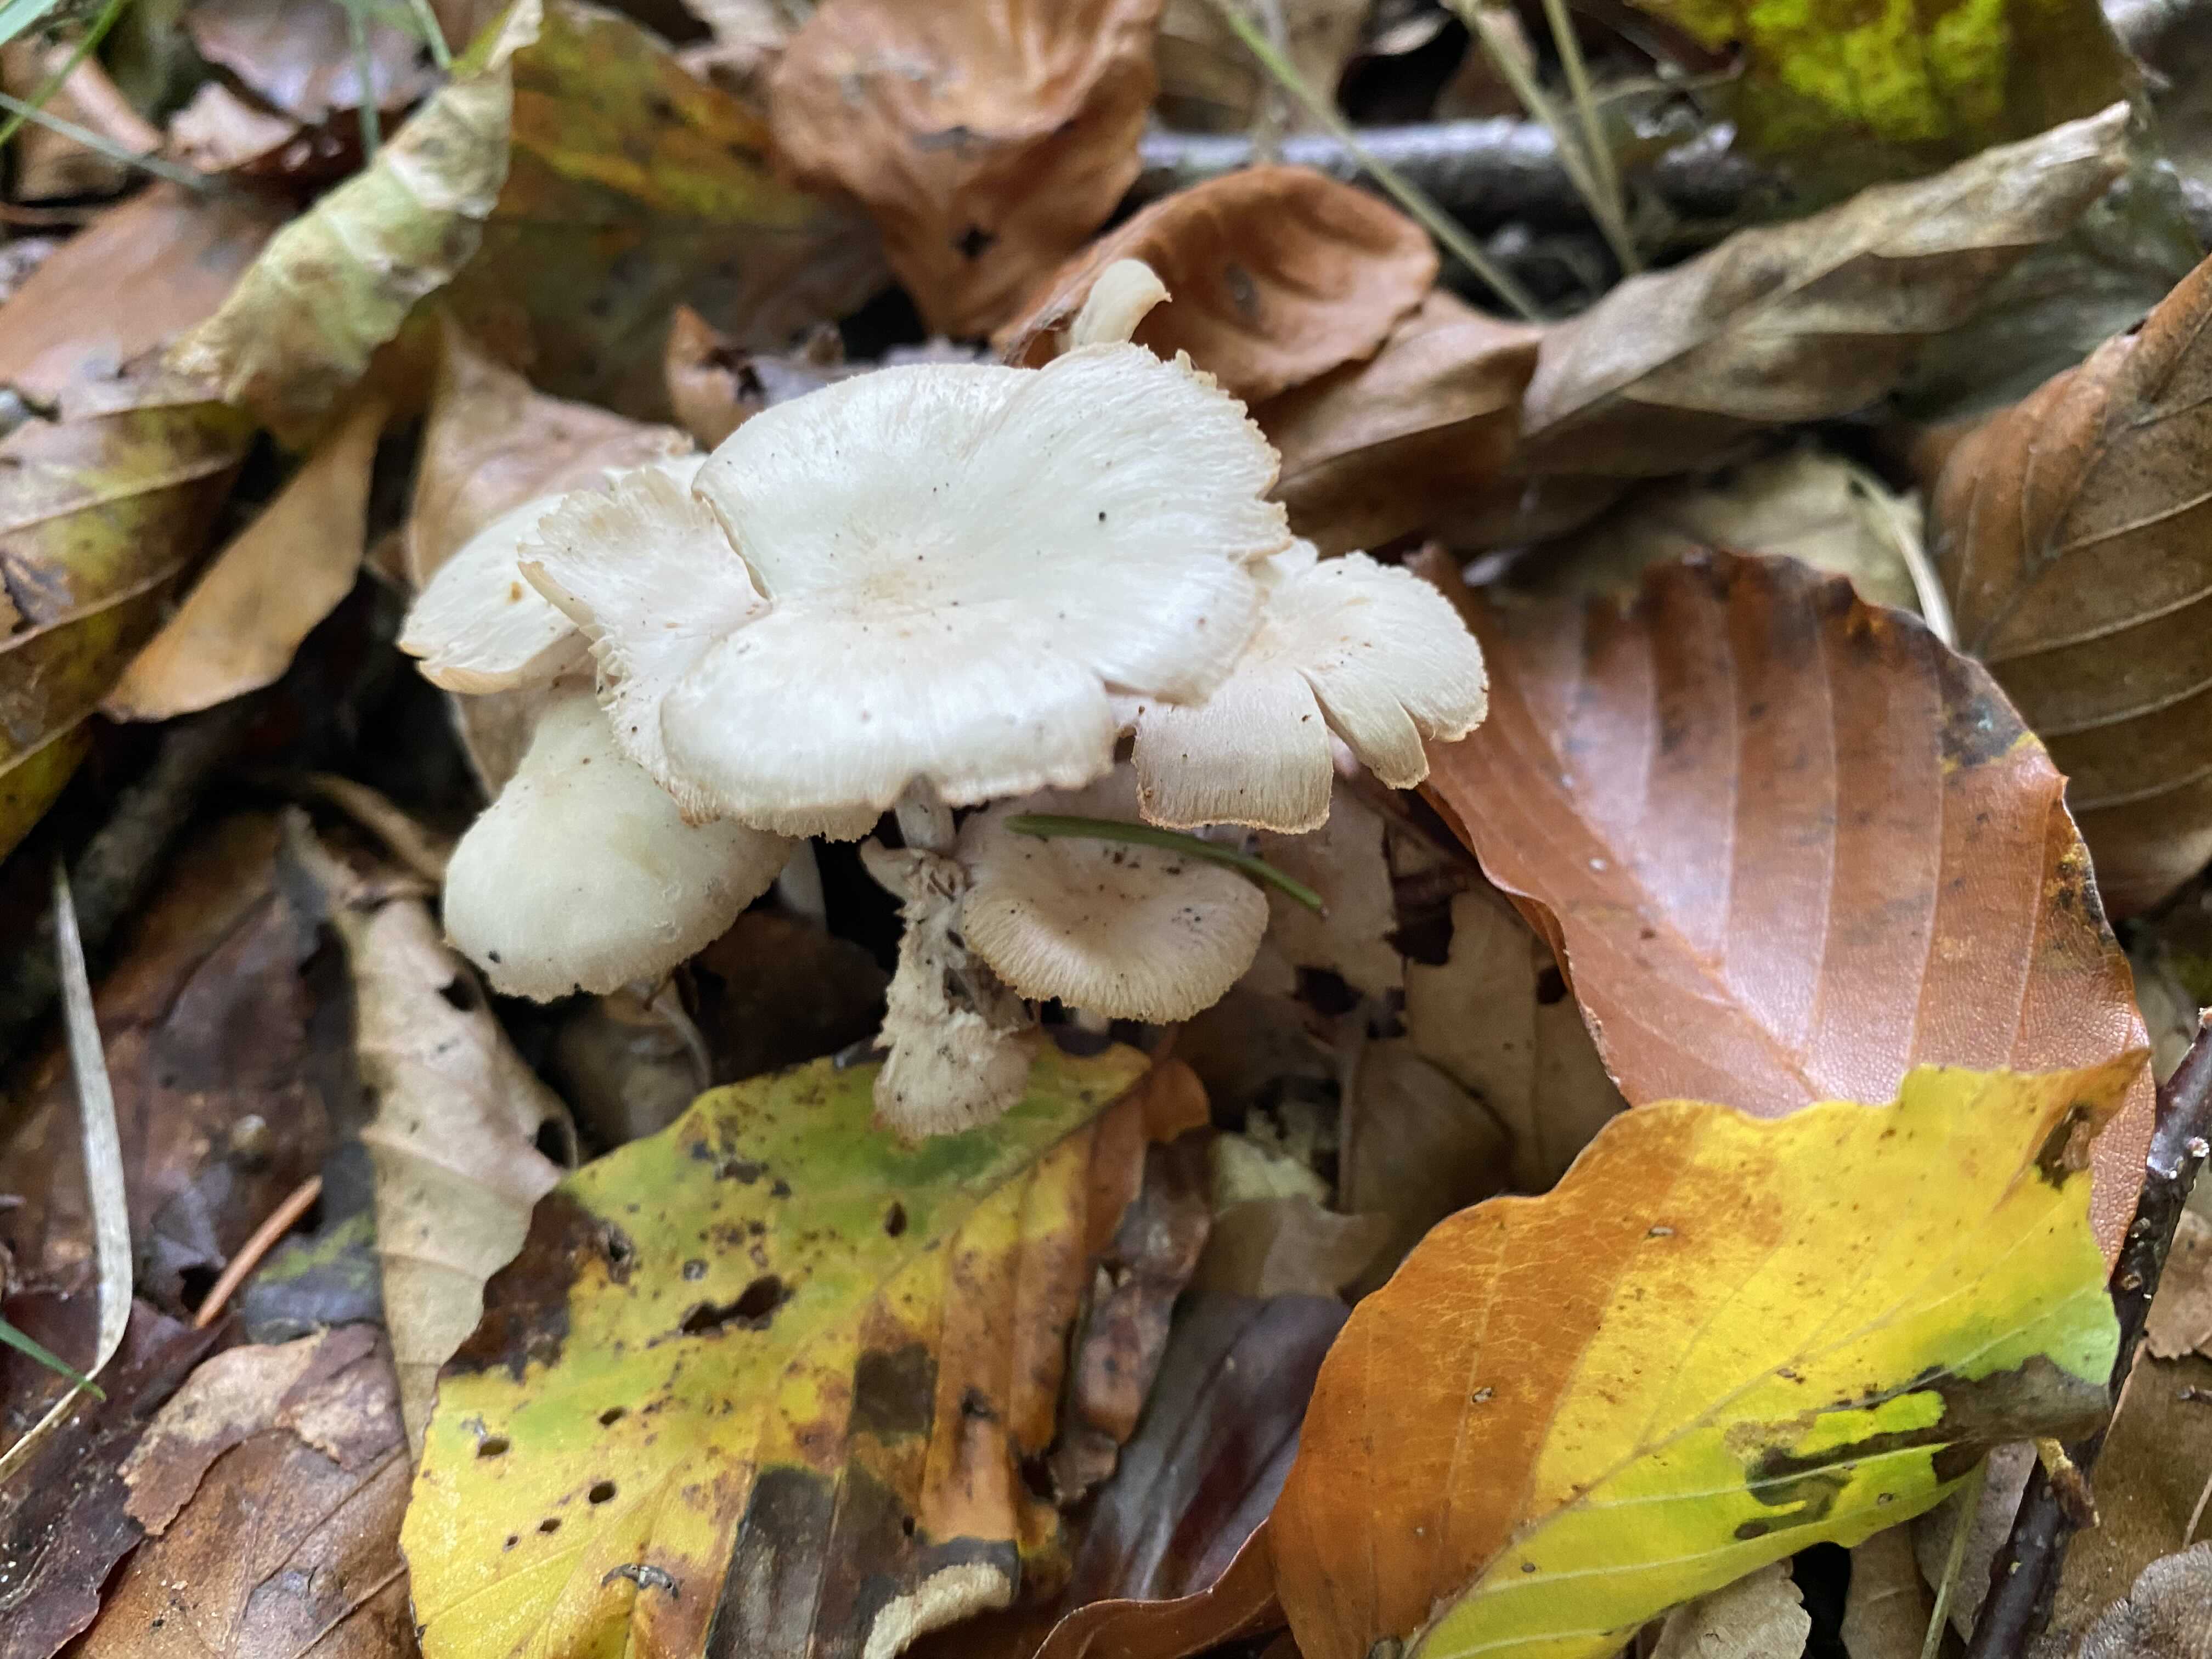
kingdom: Fungi
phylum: Basidiomycota
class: Agaricomycetes
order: Agaricales
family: Omphalotaceae
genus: Collybiopsis
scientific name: Collybiopsis confluens
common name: knippe-fladhat
